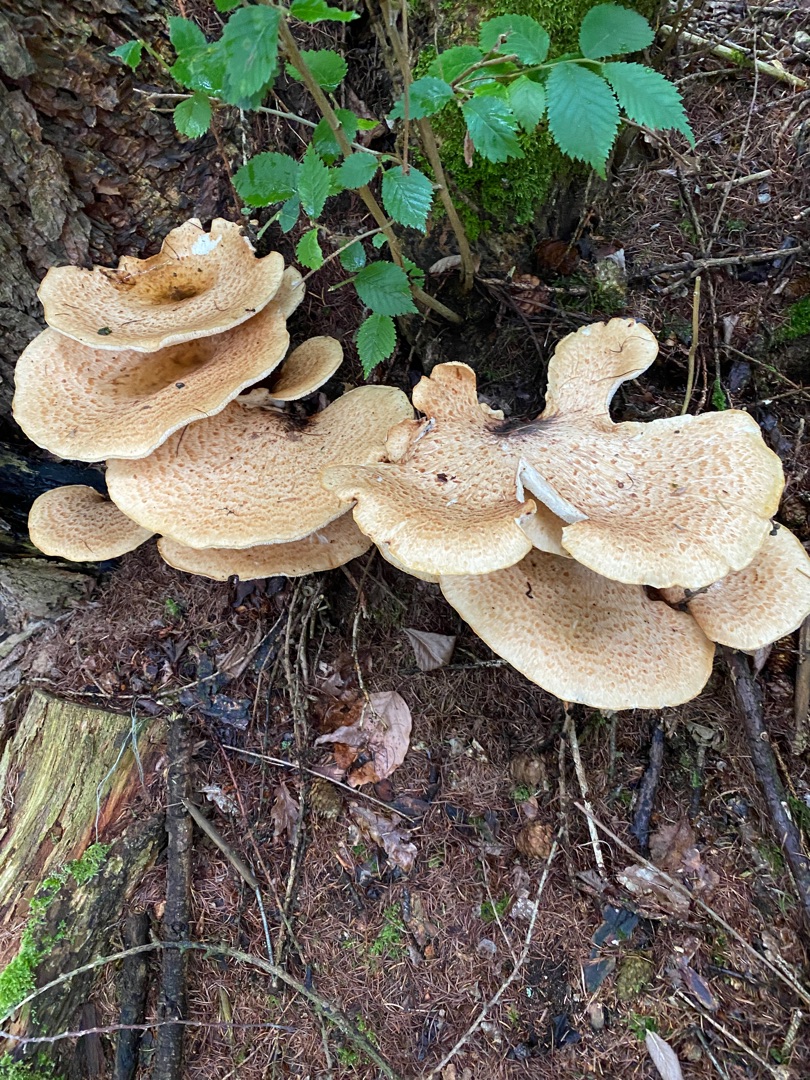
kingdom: Fungi
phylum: Basidiomycota
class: Agaricomycetes
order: Polyporales
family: Polyporaceae
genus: Cerioporus
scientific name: Cerioporus squamosus
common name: Skællet stilkporesvamp
